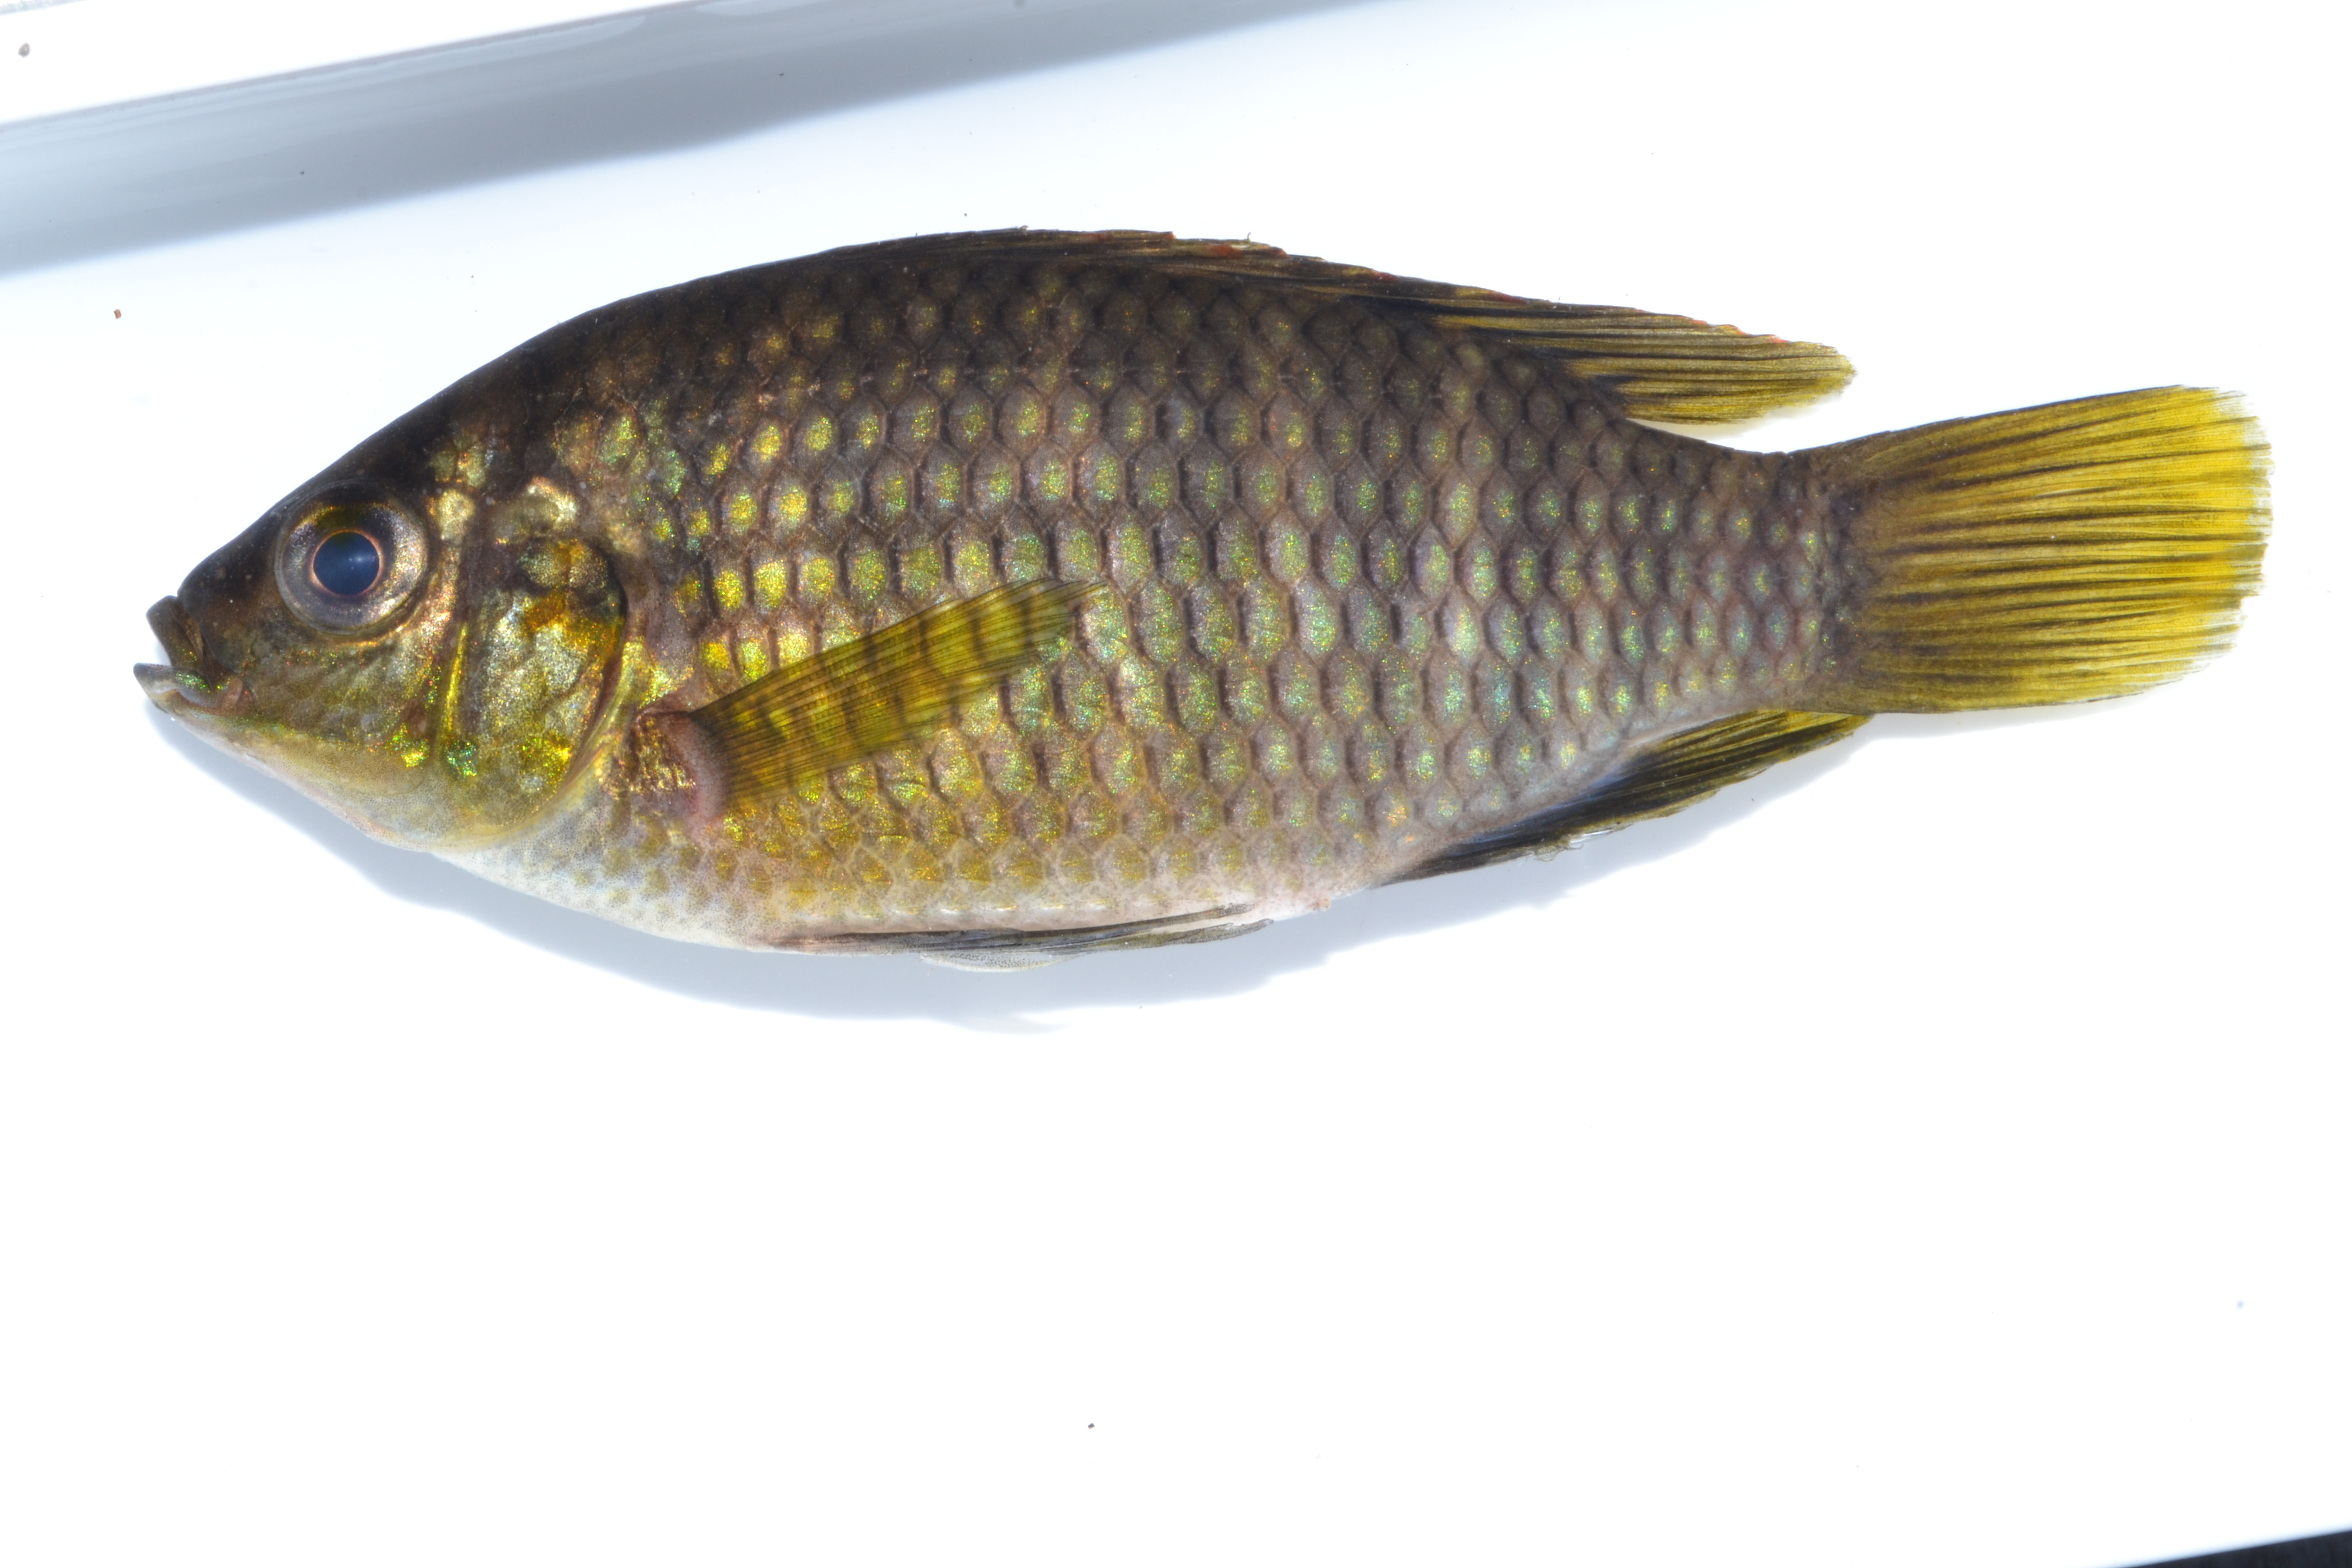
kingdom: Animalia
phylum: Chordata
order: Perciformes
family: Cichlidae
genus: Tilapia
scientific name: Tilapia sparrmanii
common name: Banded tilapia
